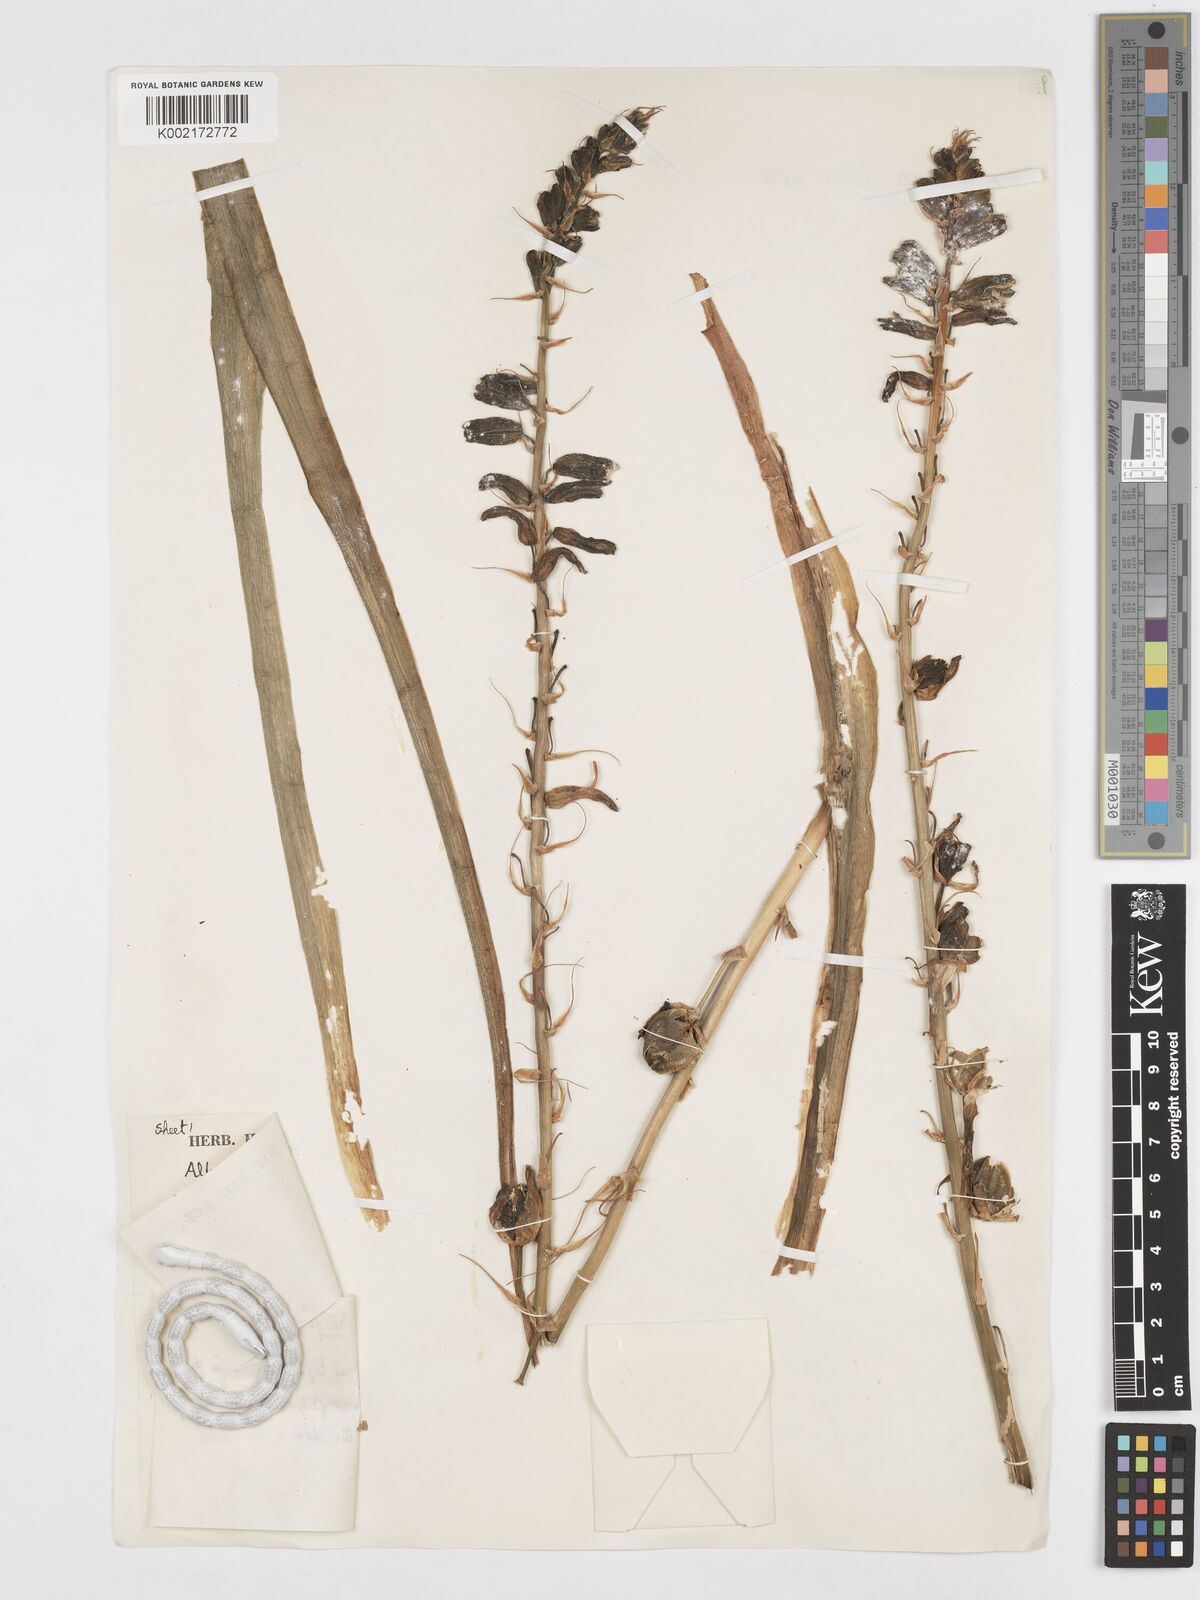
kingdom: Plantae
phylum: Tracheophyta
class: Liliopsida
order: Asparagales
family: Asparagaceae
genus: Albuca
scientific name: Albuca
